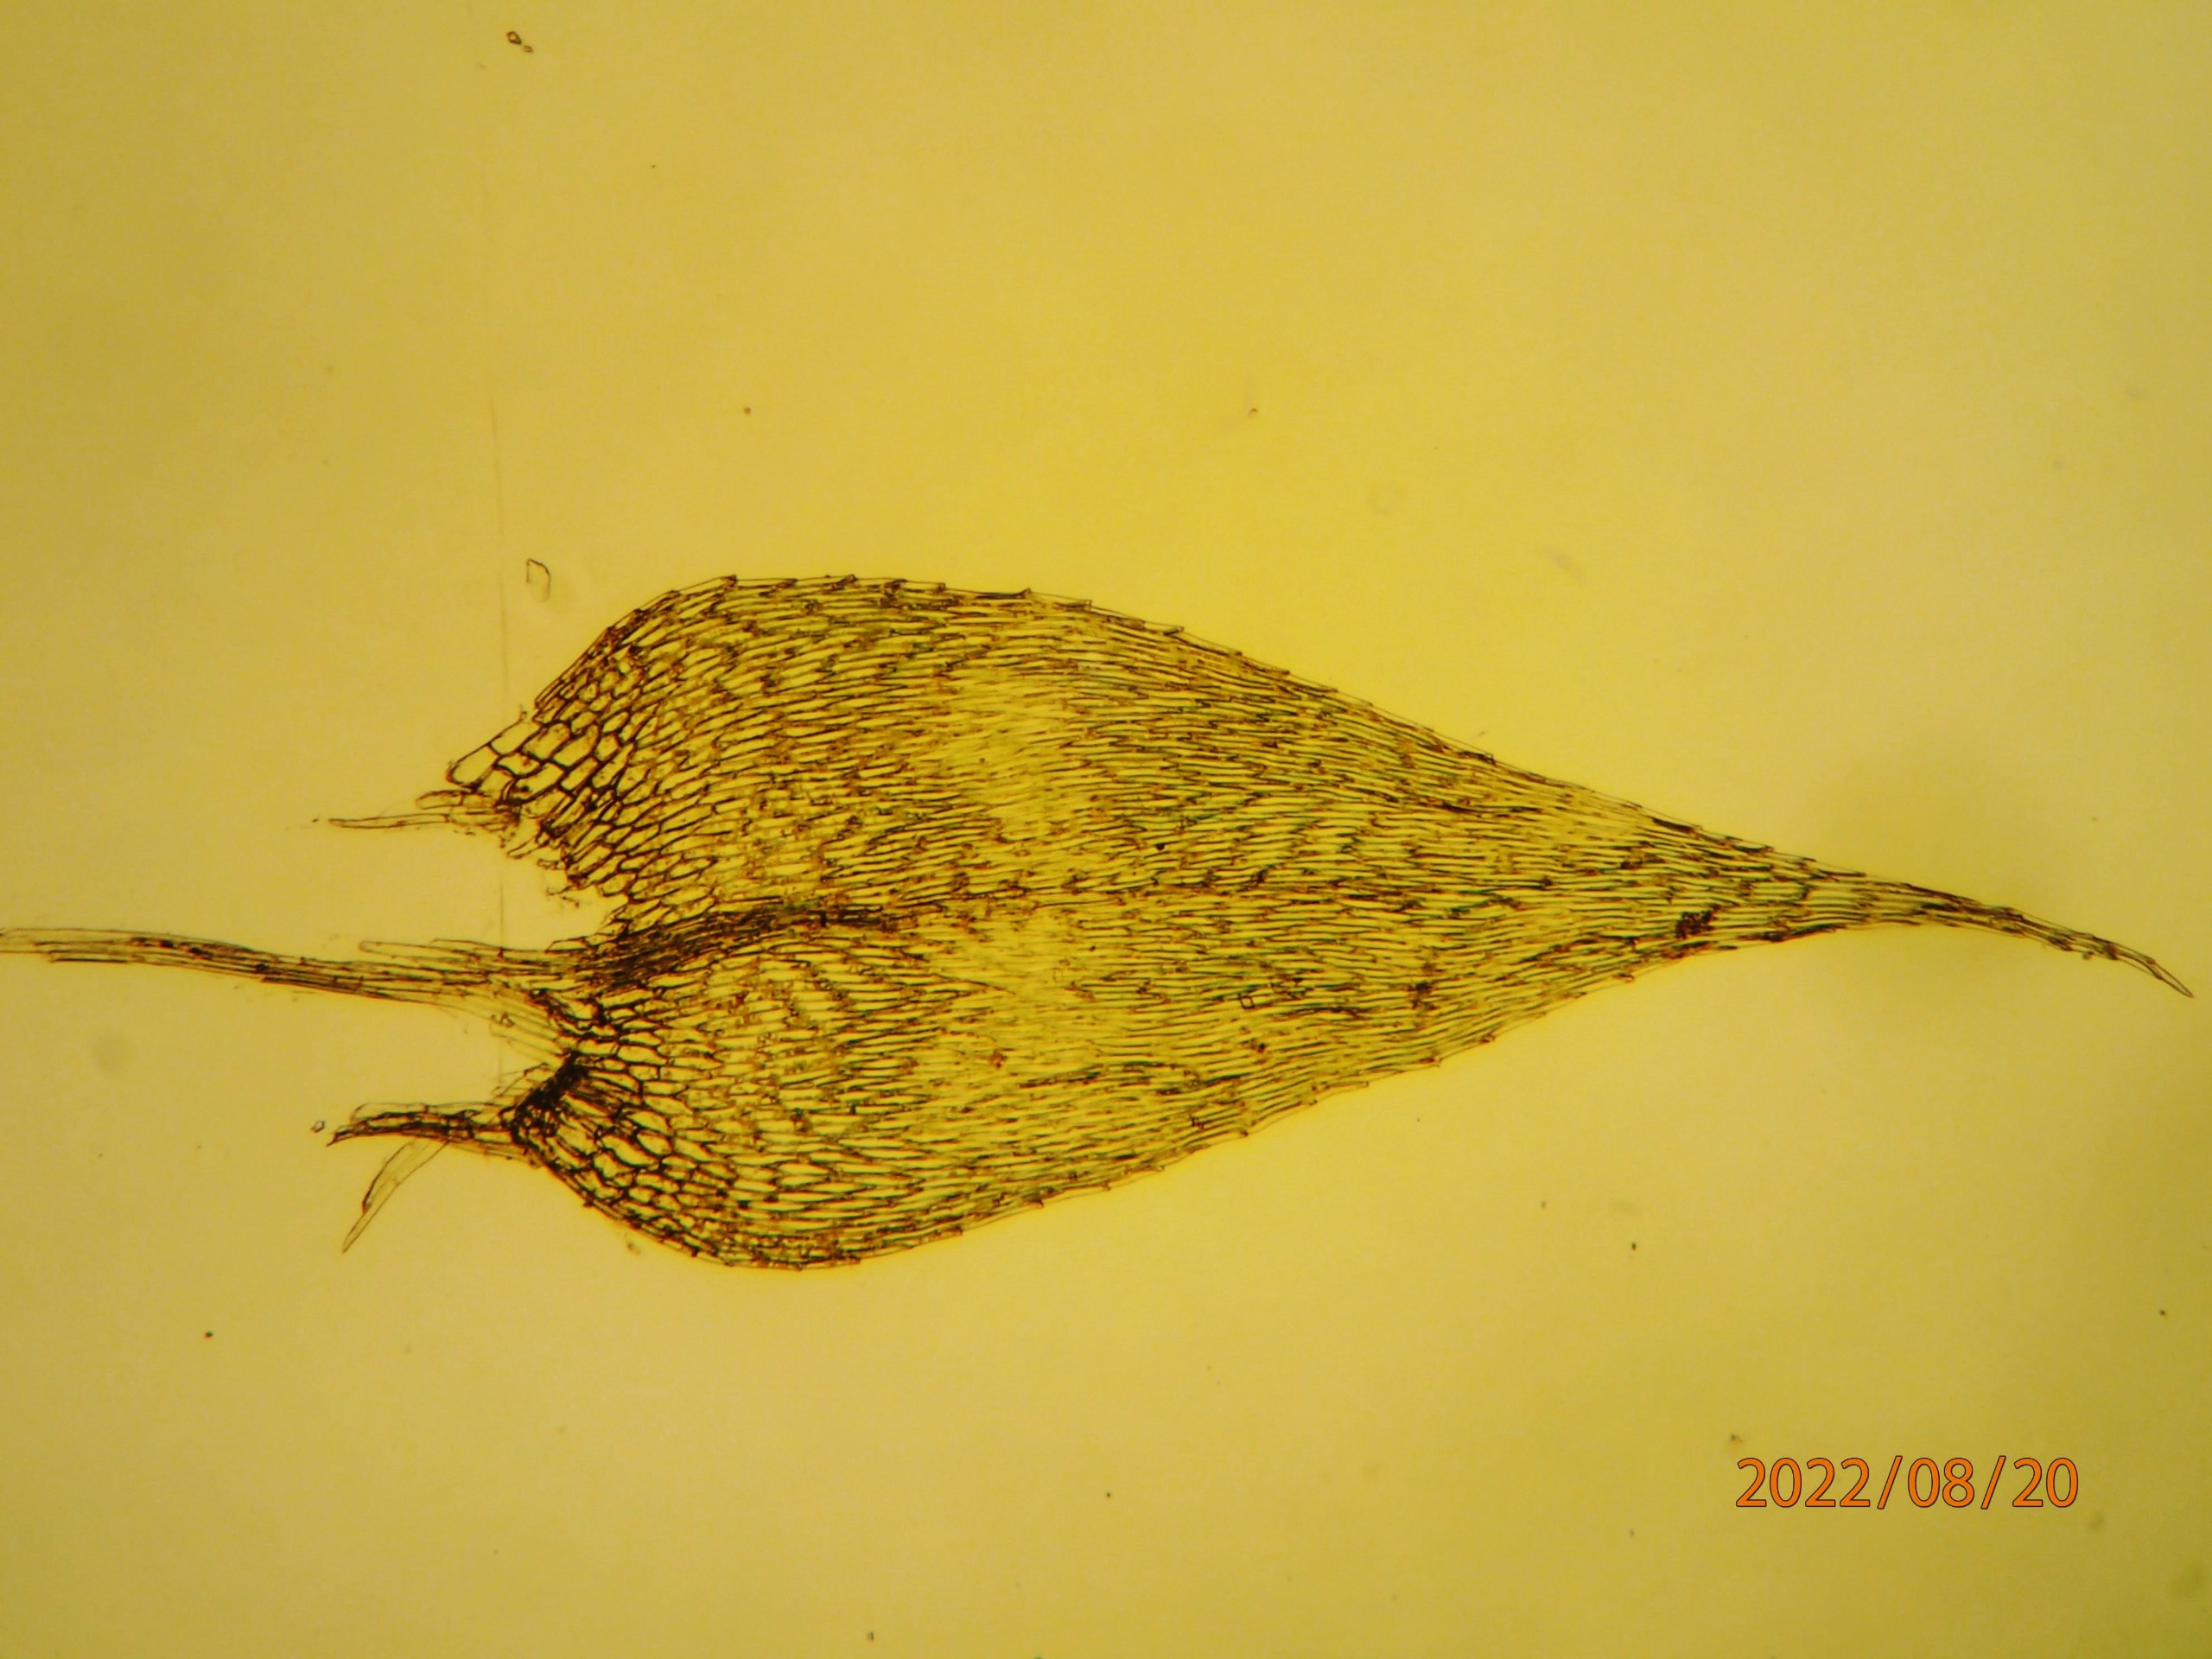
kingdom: Plantae
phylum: Bryophyta
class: Bryopsida
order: Hypnales
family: Amblystegiaceae
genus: Leptodictyum
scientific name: Leptodictyum riparium
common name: Stor pytmos
